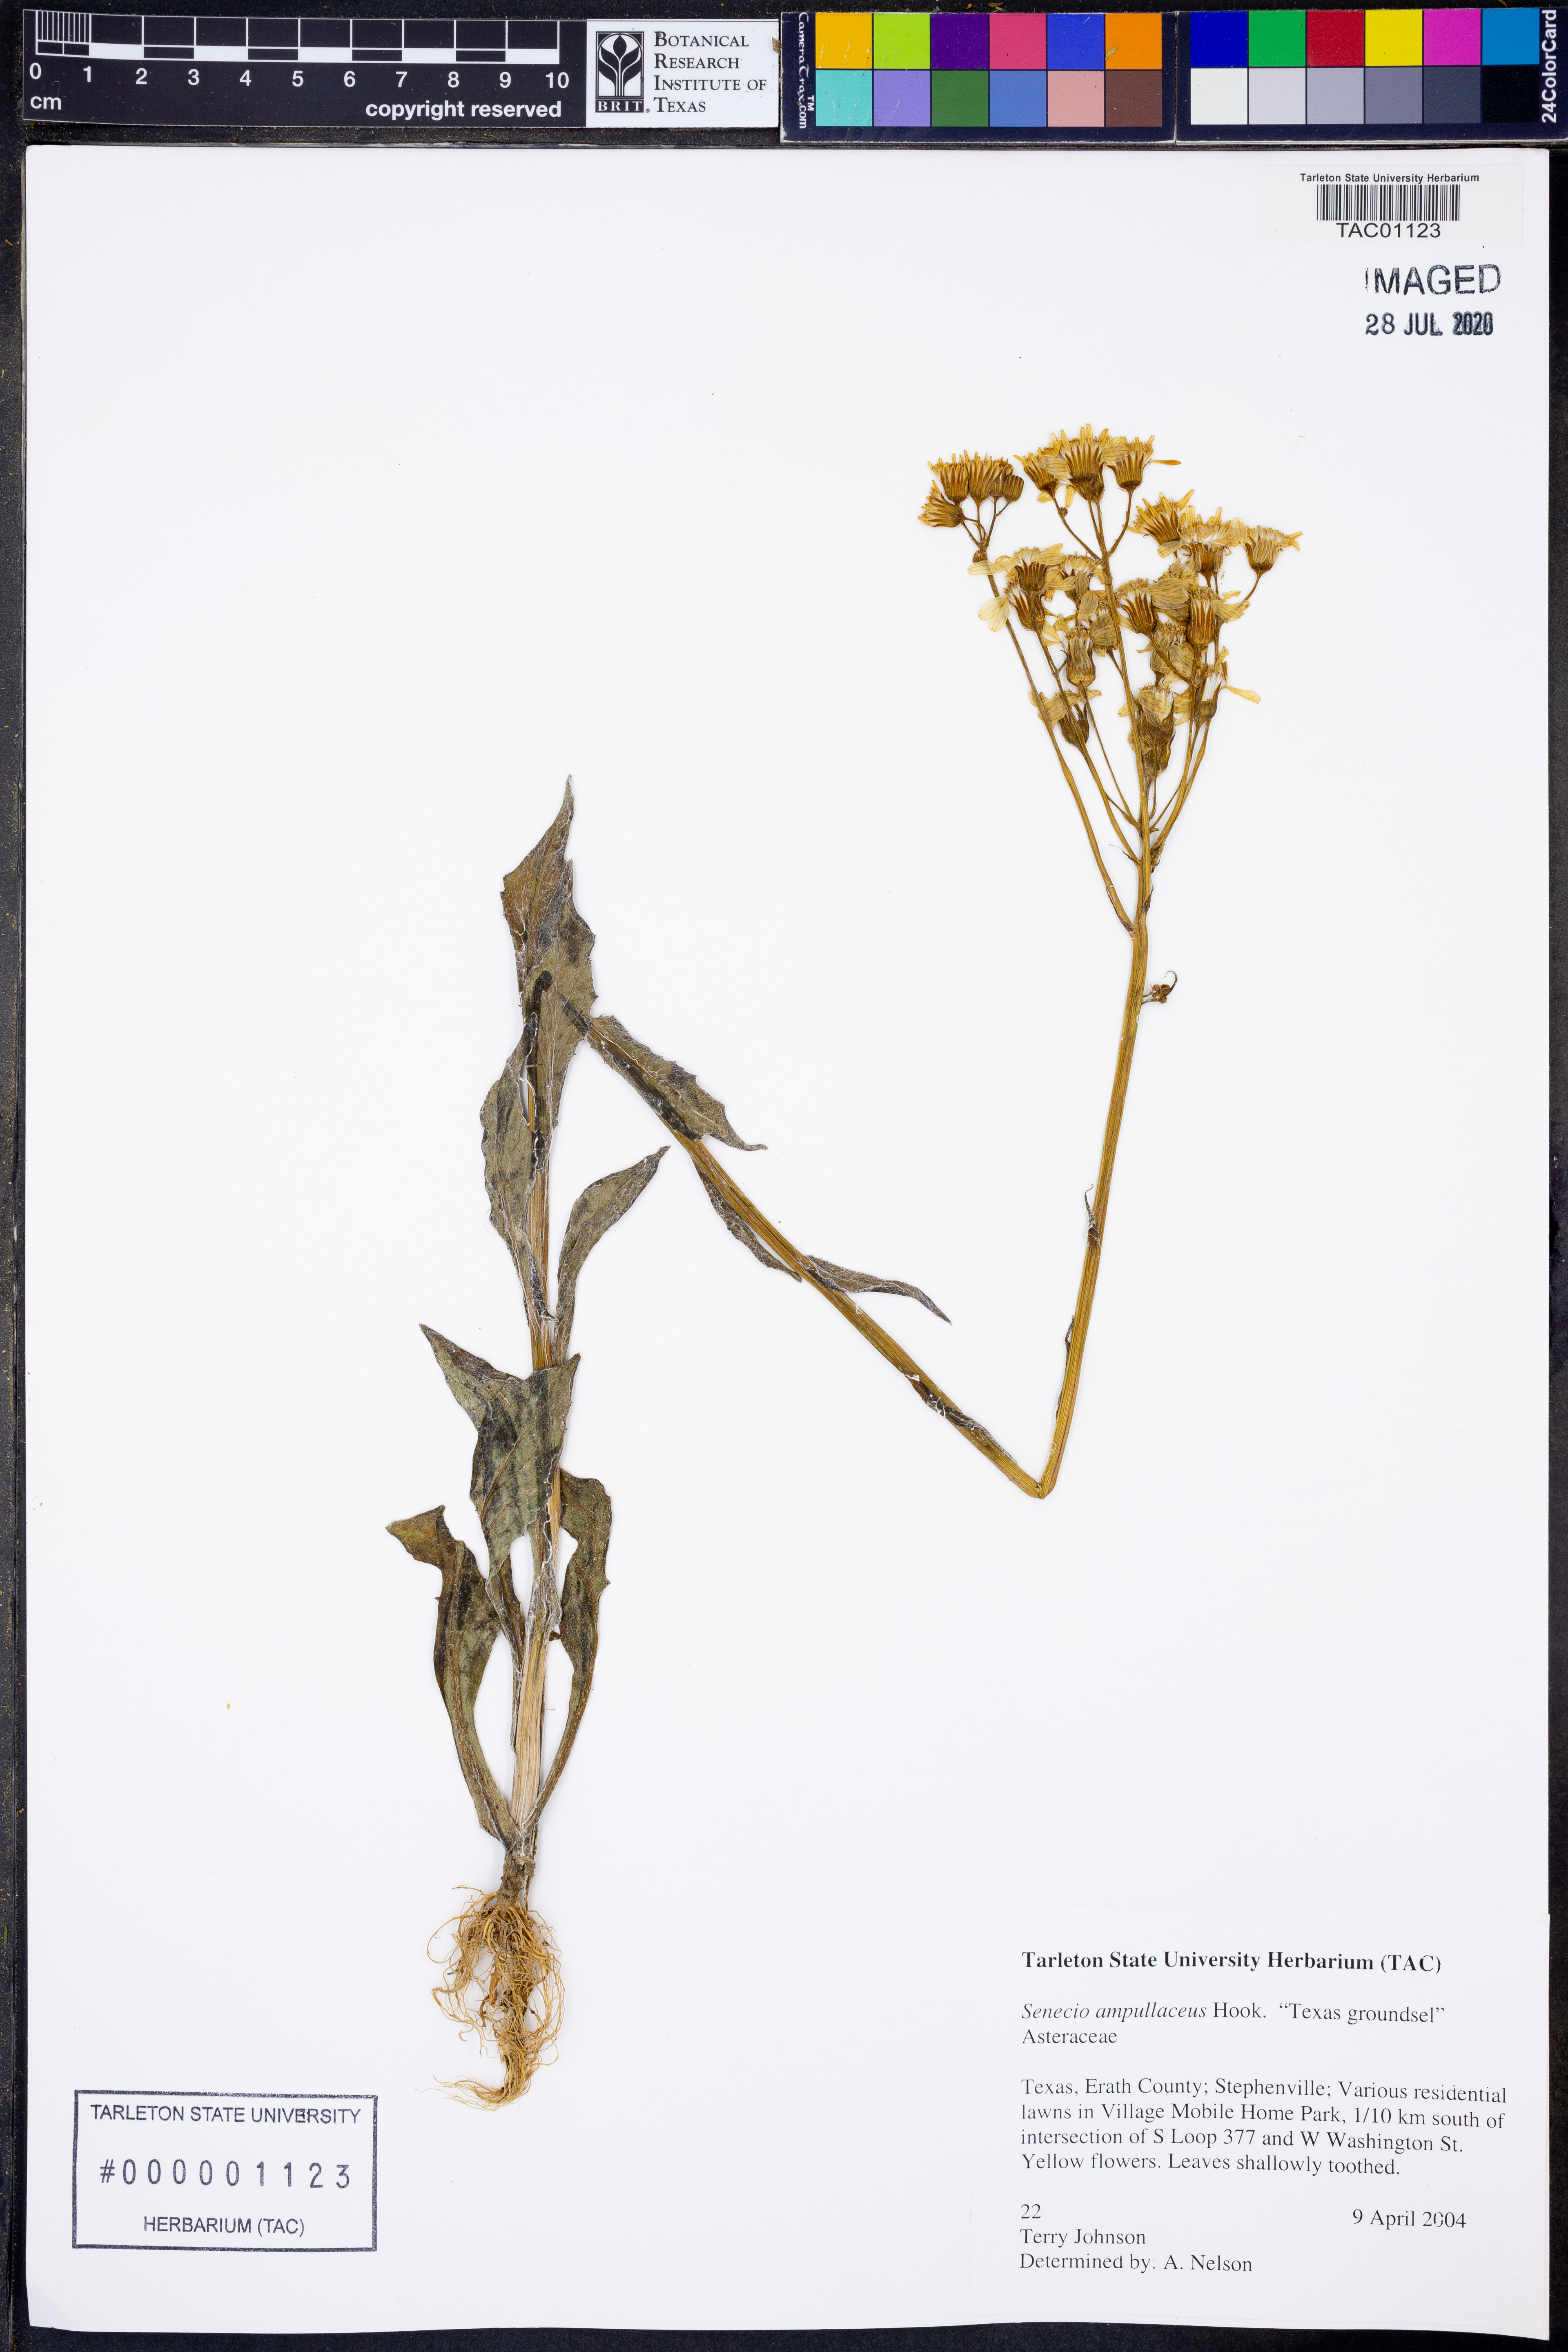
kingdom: Plantae
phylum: Tracheophyta
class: Magnoliopsida
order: Asterales
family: Asteraceae
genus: Senecio
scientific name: Senecio ampullaceus
